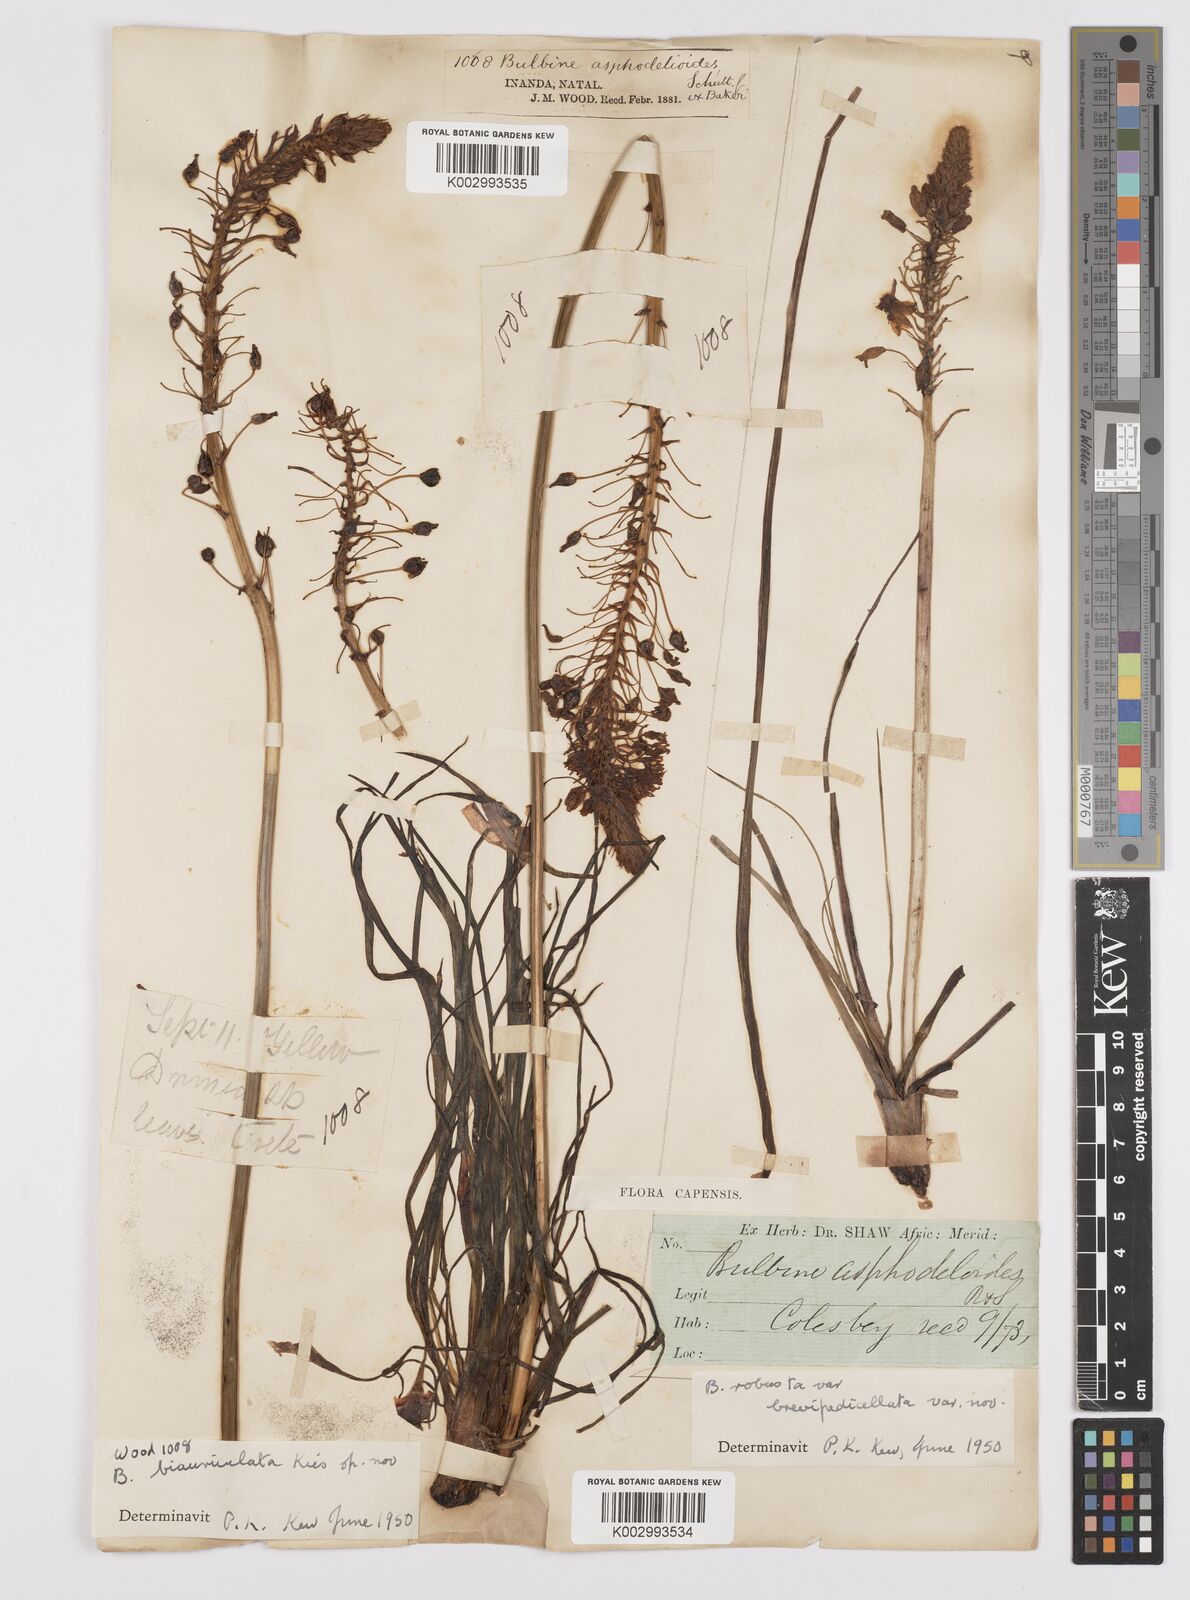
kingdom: Plantae
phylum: Tracheophyta
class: Liliopsida
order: Asparagales
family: Asphodelaceae
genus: Bulbine
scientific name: Bulbine asphodeloides
